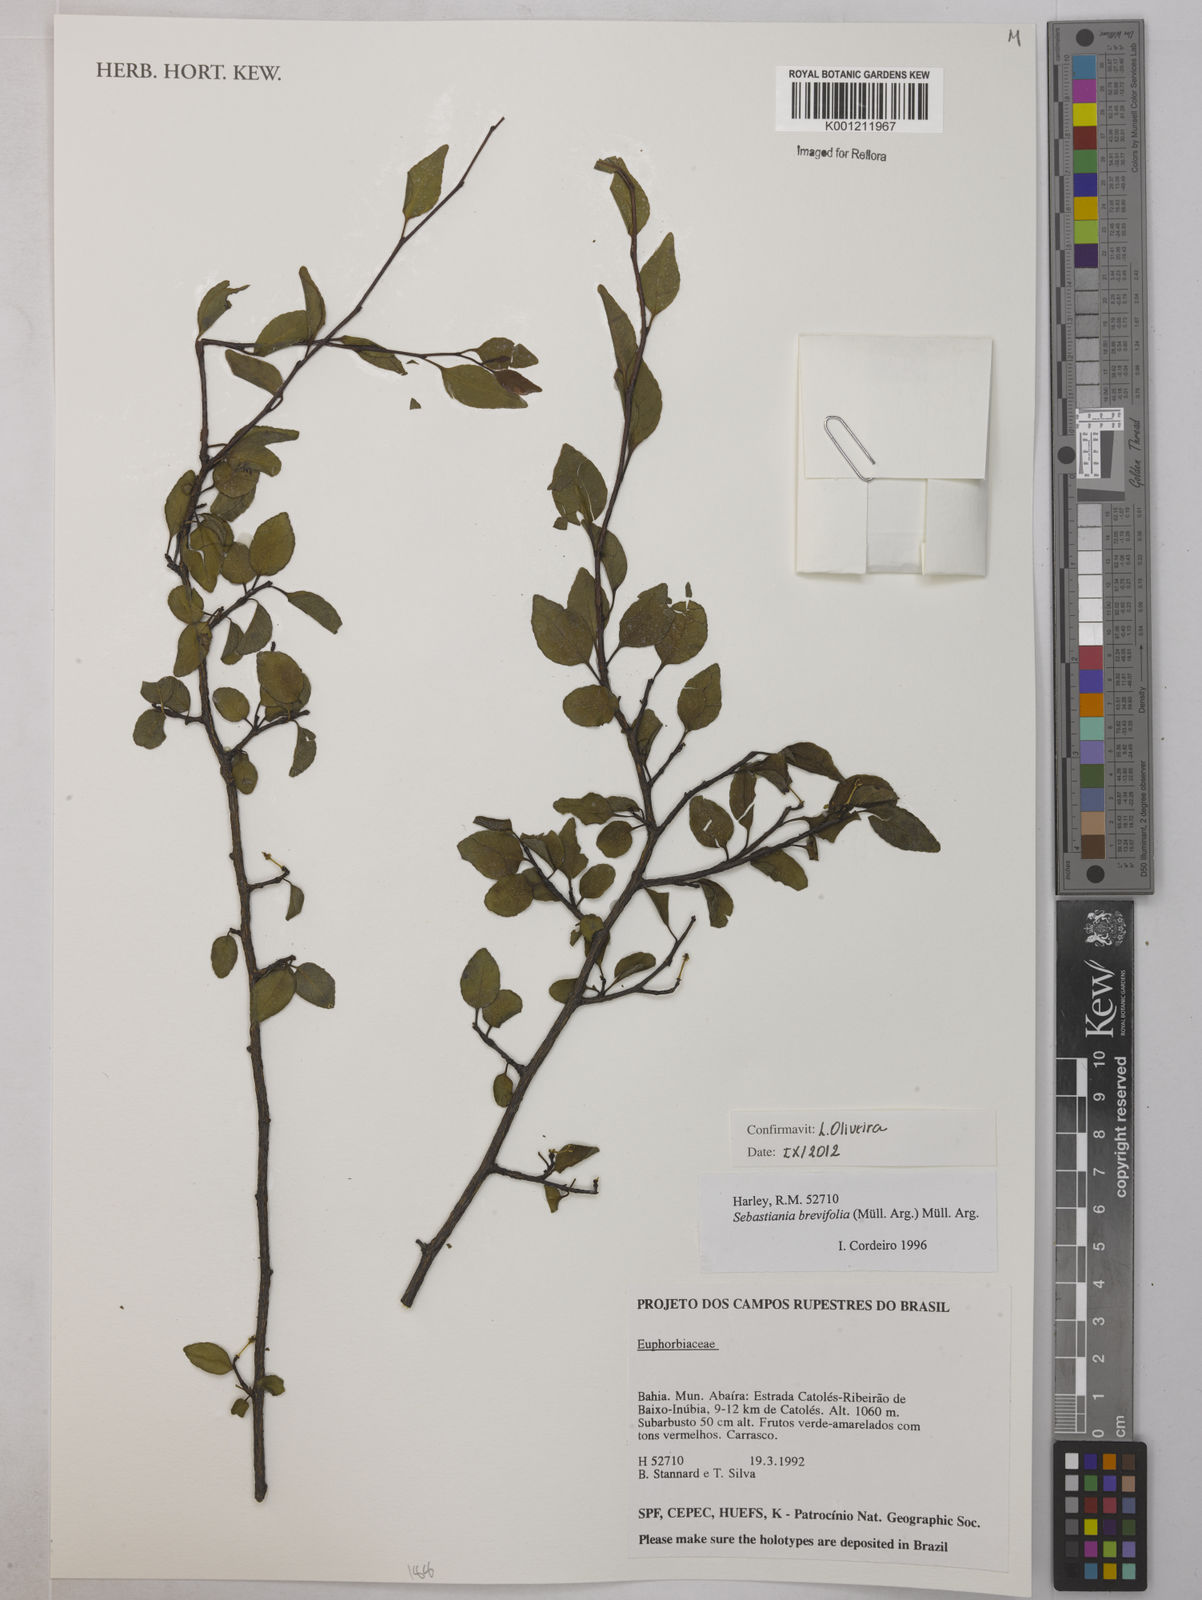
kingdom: Plantae
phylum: Tracheophyta
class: Magnoliopsida
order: Malpighiales
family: Euphorbiaceae
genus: Sebastiania
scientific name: Sebastiania
